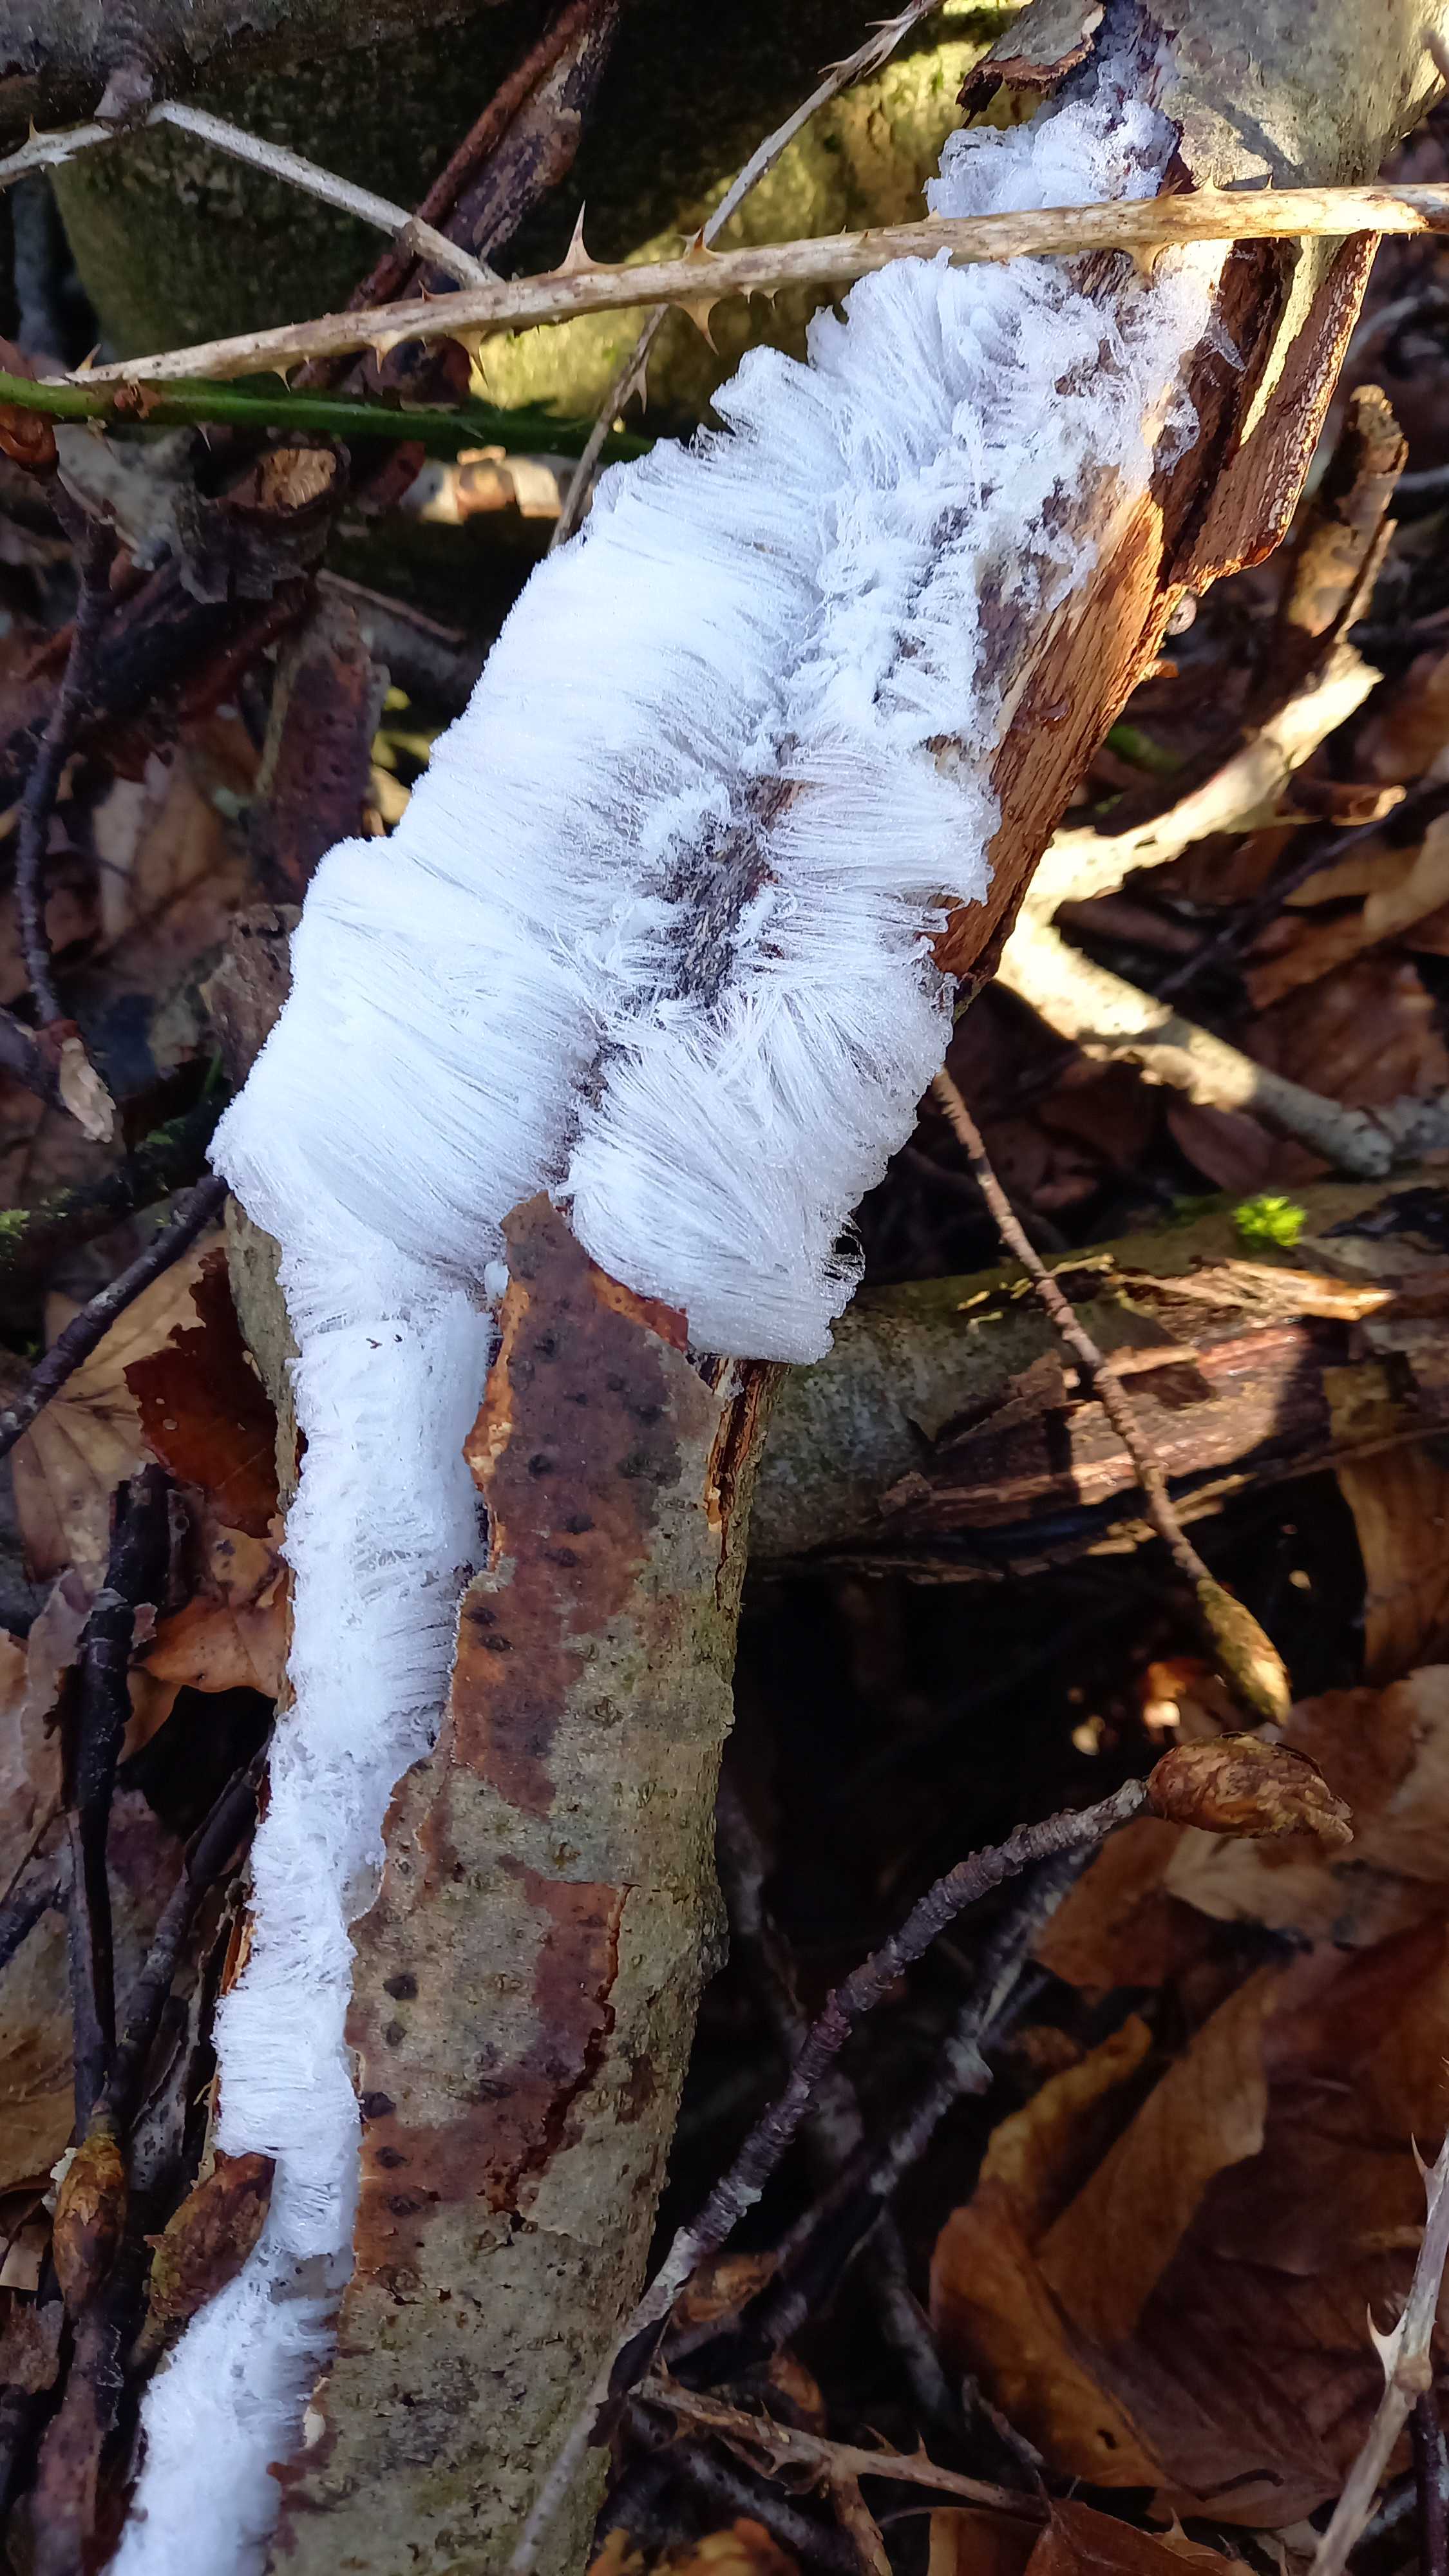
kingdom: Fungi
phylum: Basidiomycota
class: Tremellomycetes
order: Tremellales
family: Exidiaceae
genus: Exidiopsis
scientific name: Exidiopsis effusa
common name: smuk bævrehinde
